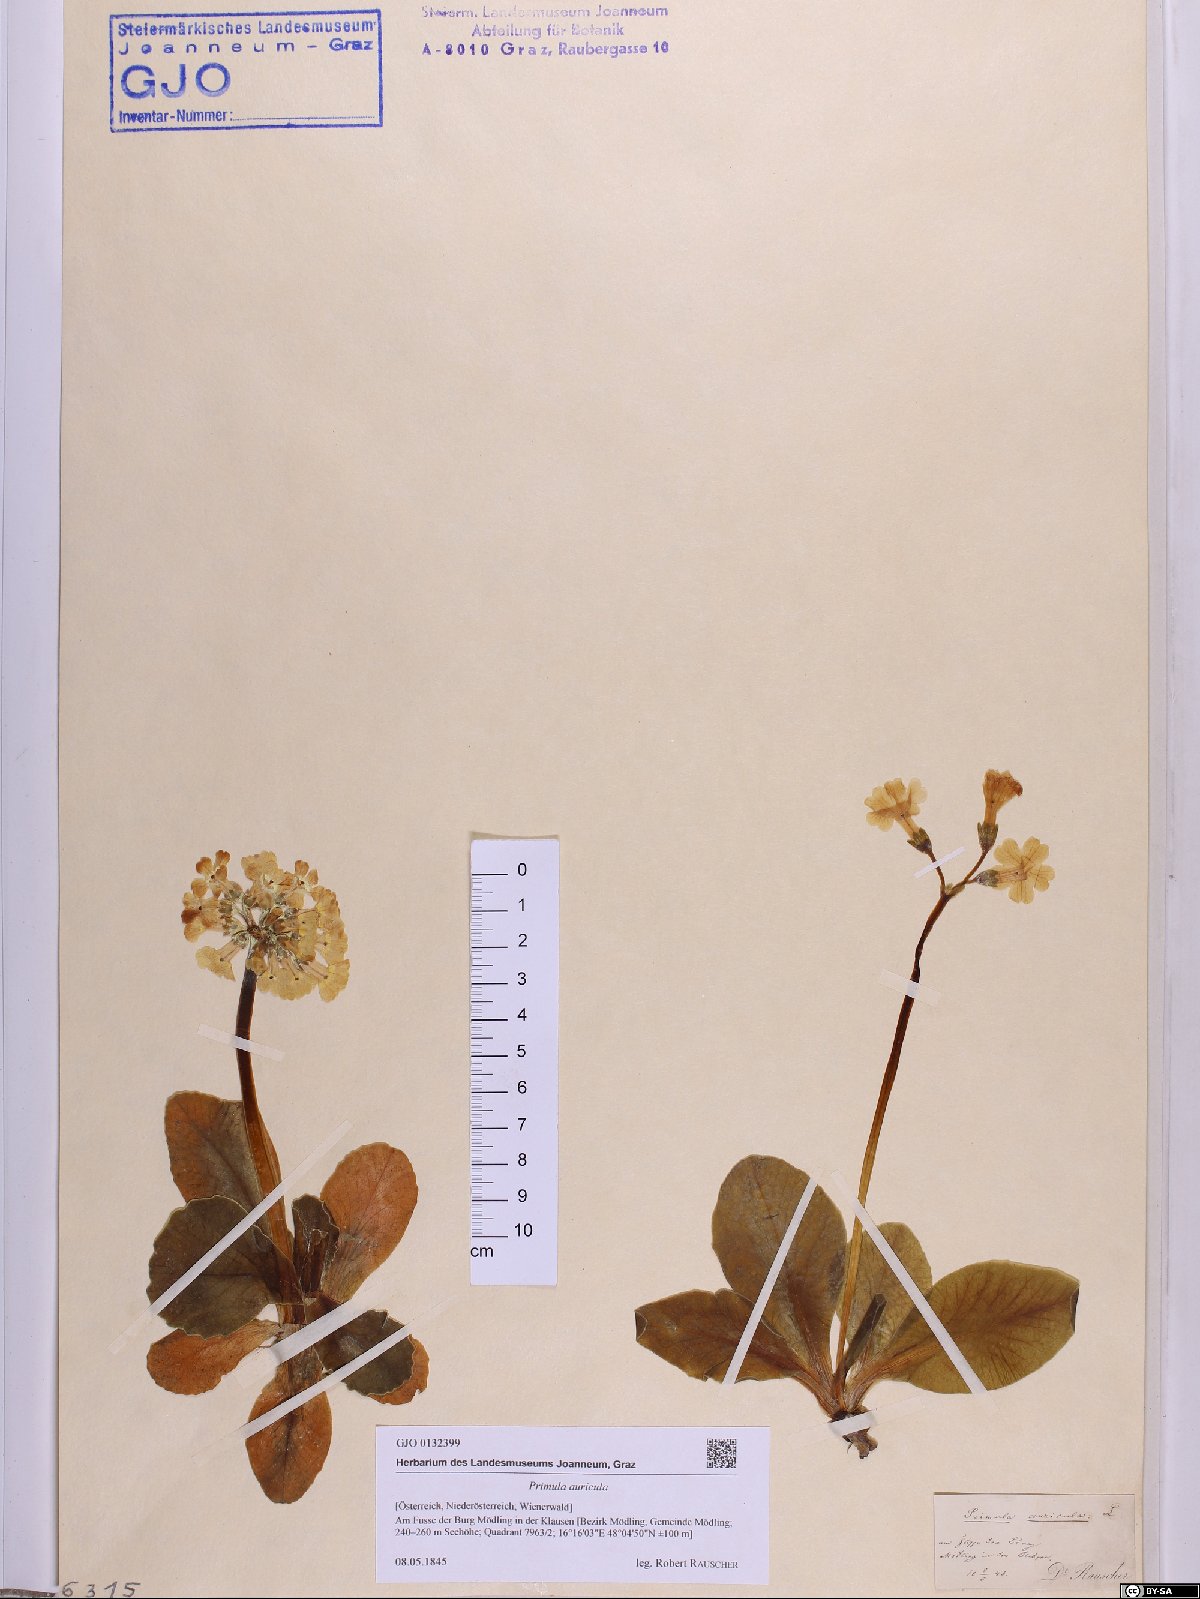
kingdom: Plantae
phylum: Tracheophyta
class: Magnoliopsida
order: Ericales
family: Primulaceae
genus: Primula
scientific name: Primula auricula
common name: Auricula
